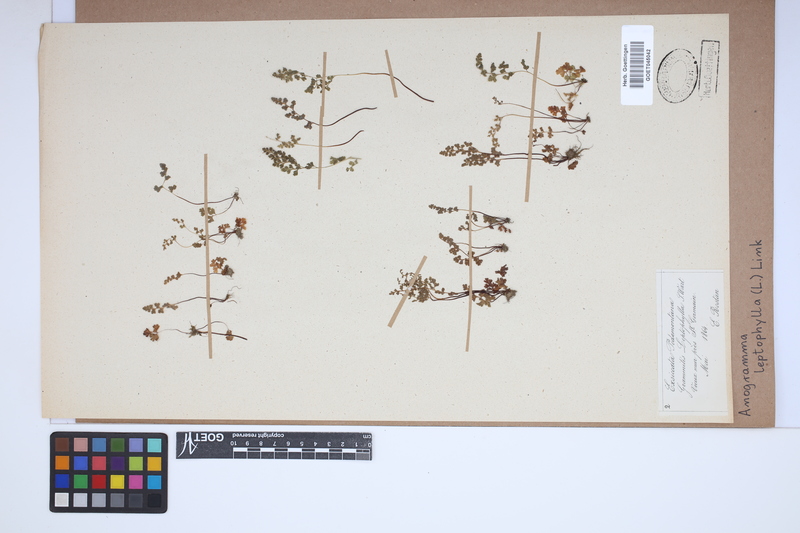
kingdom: Plantae
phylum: Tracheophyta
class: Polypodiopsida
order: Polypodiales
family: Pteridaceae
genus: Anogramma
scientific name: Anogramma leptophylla
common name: Jersey fern
